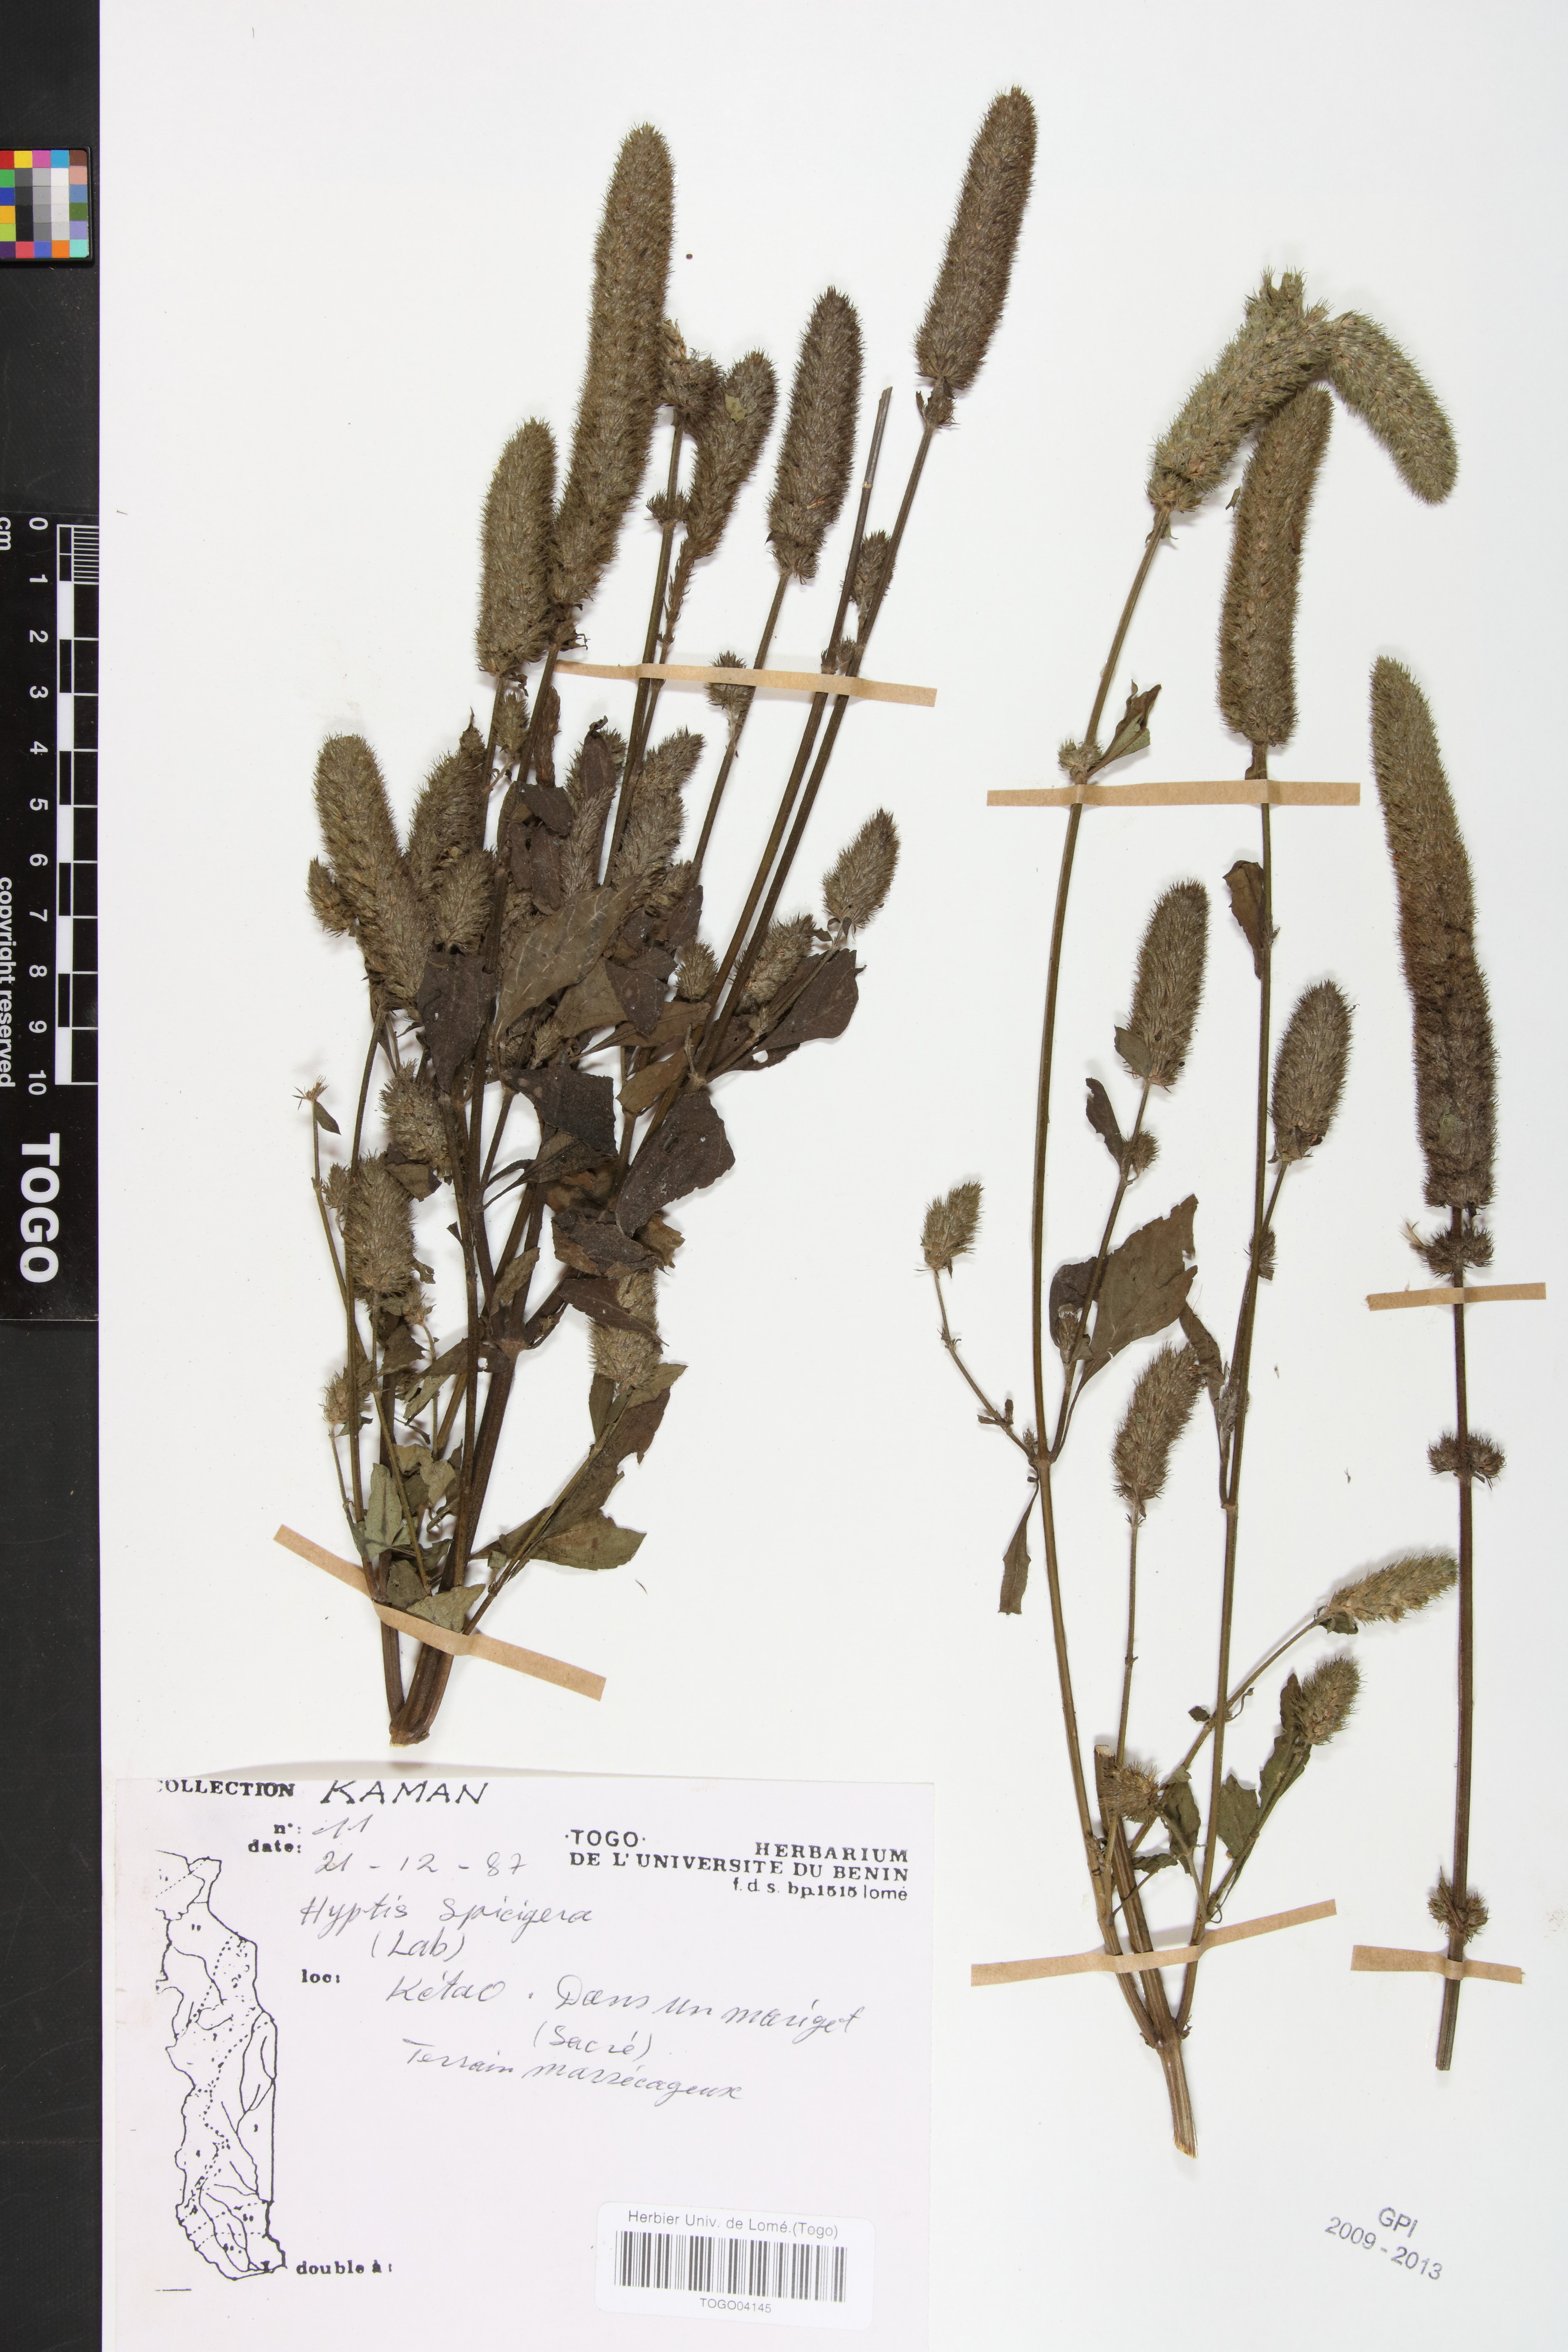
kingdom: Plantae
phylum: Tracheophyta
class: Magnoliopsida
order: Lamiales
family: Lamiaceae
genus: Cantinoa
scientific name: Cantinoa americana
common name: Black-sesame
